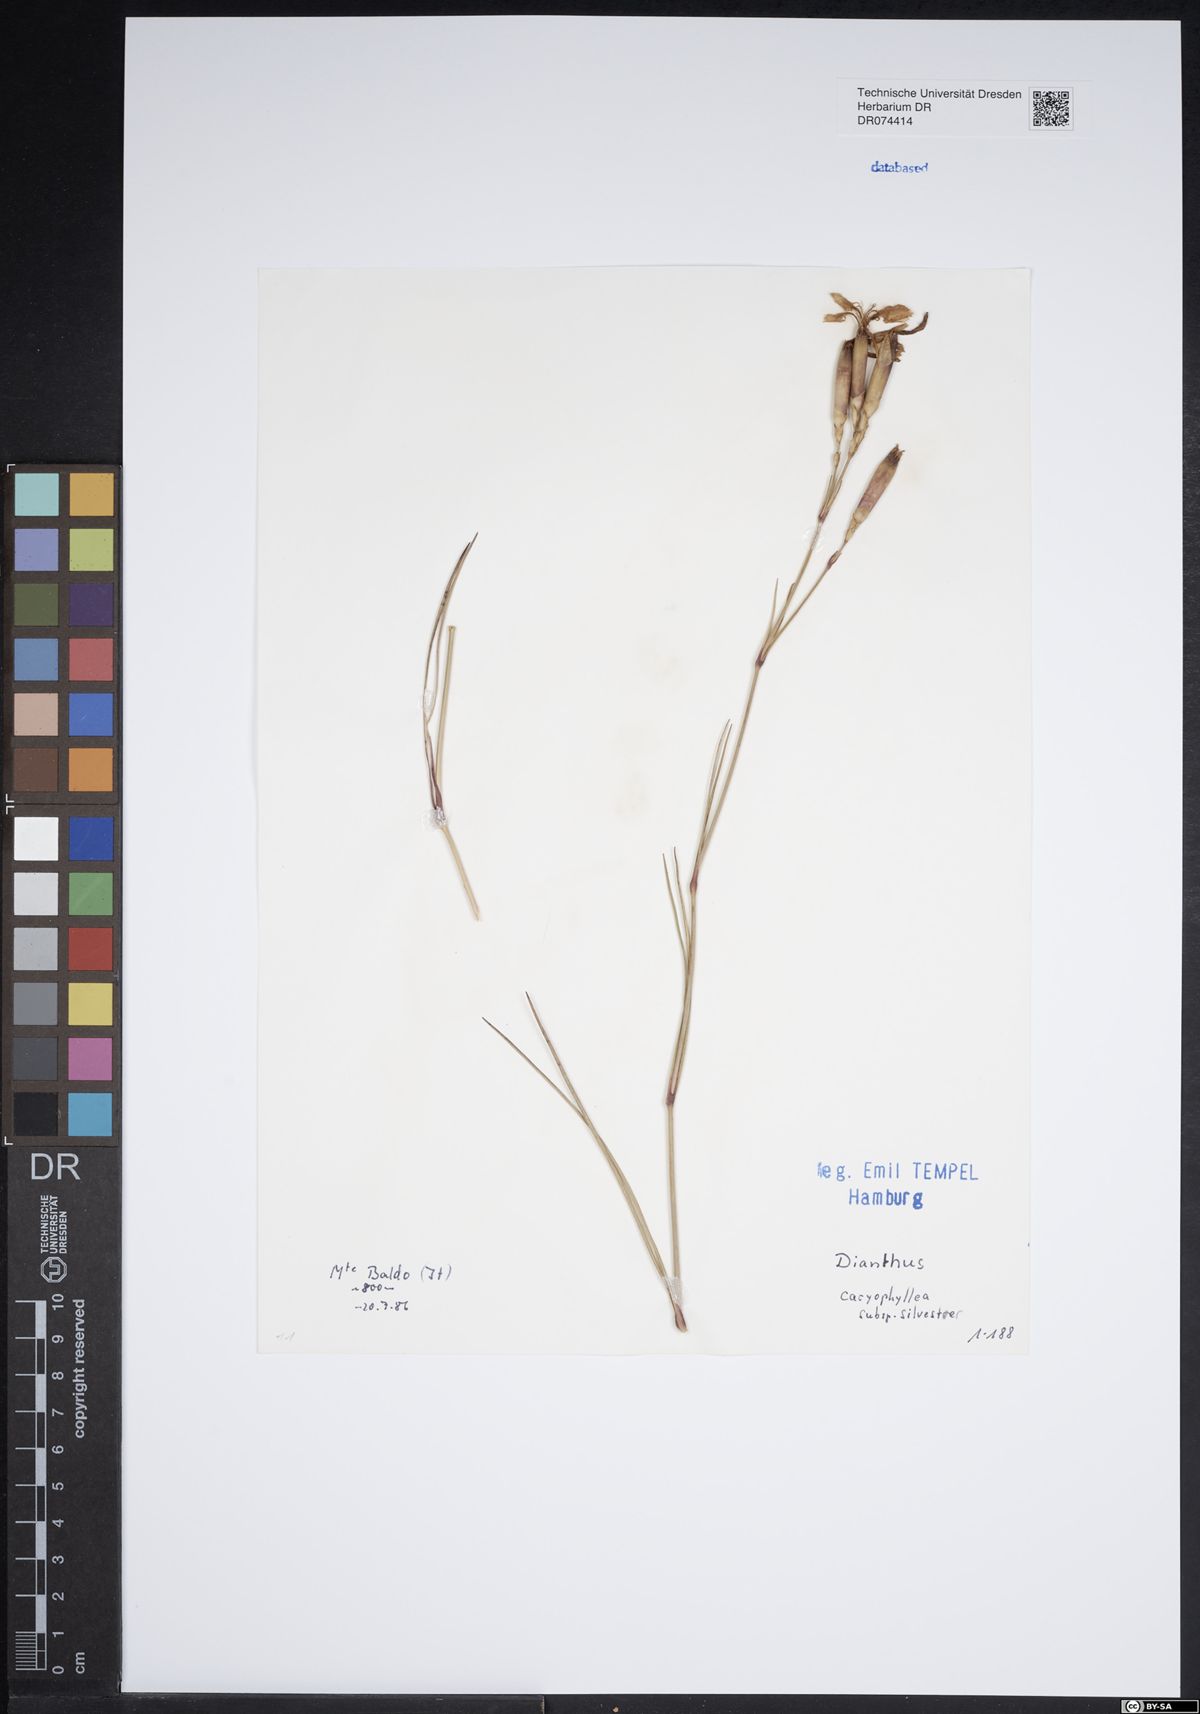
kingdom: Plantae
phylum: Tracheophyta
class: Magnoliopsida
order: Caryophyllales
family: Caryophyllaceae
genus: Dianthus
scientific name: Dianthus caryophyllus
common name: Clove pink
